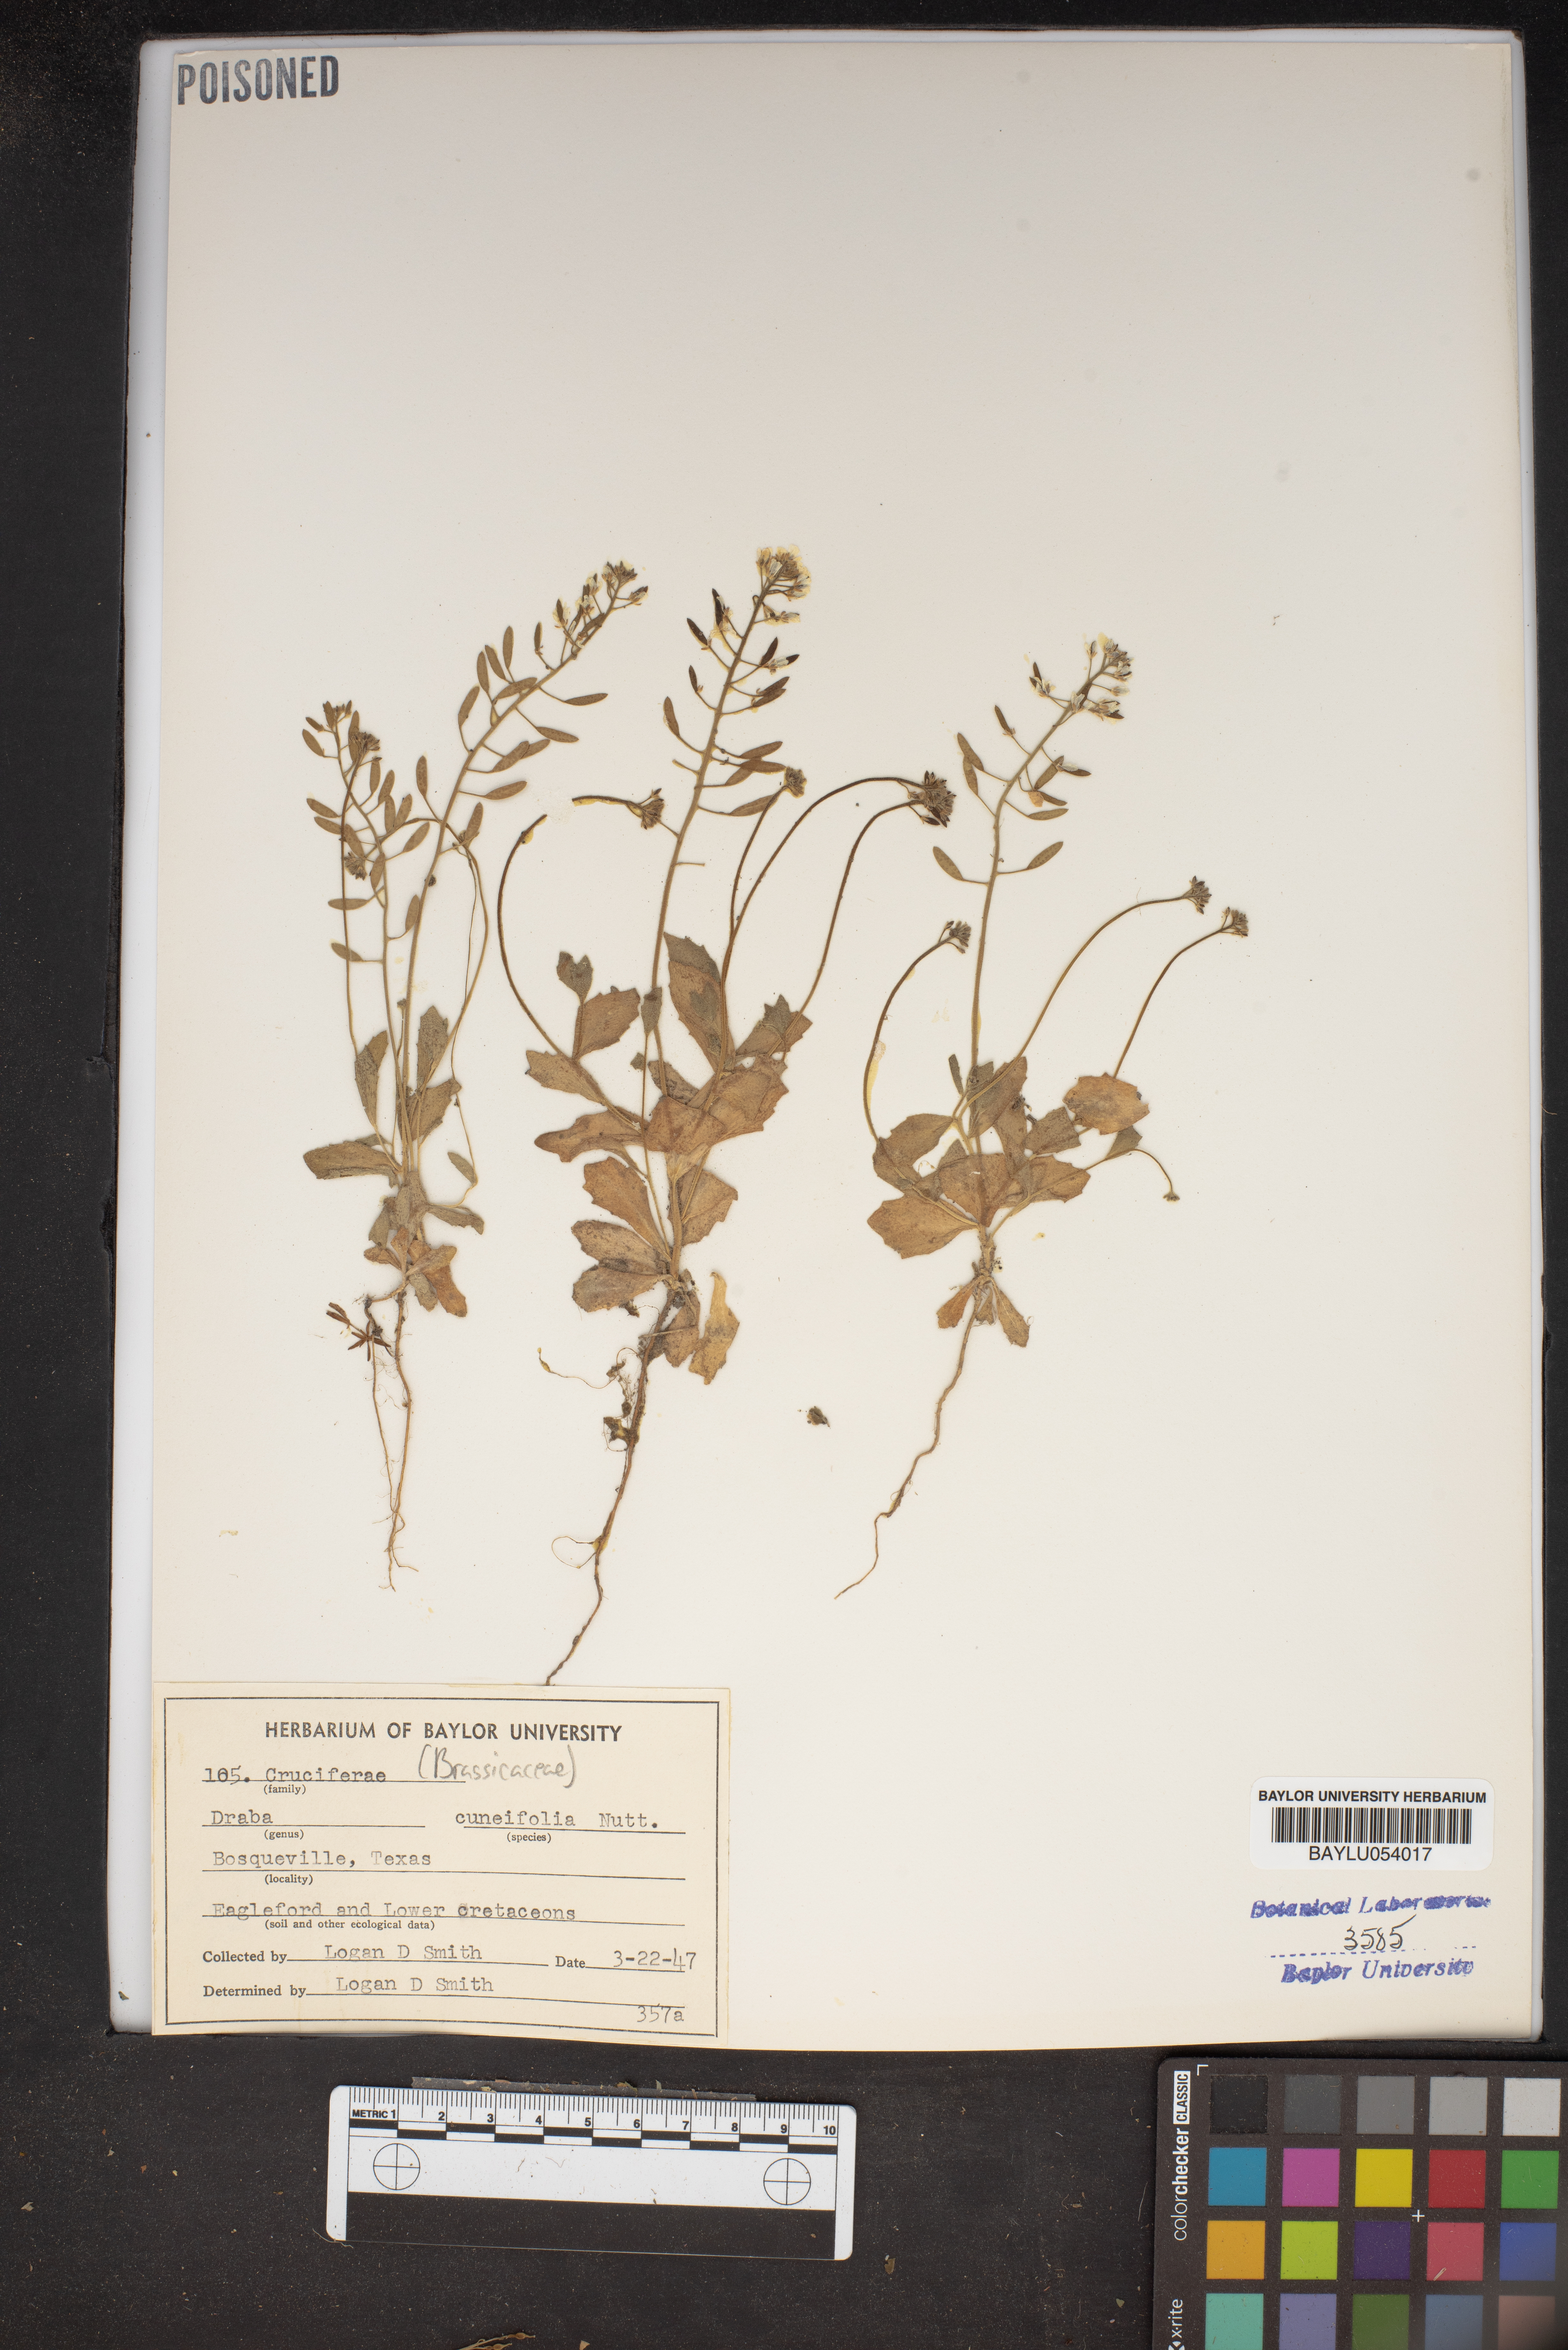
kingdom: Plantae
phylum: Tracheophyta
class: Magnoliopsida
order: Brassicales
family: Brassicaceae
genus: Tomostima
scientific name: Tomostima cuneifolia
